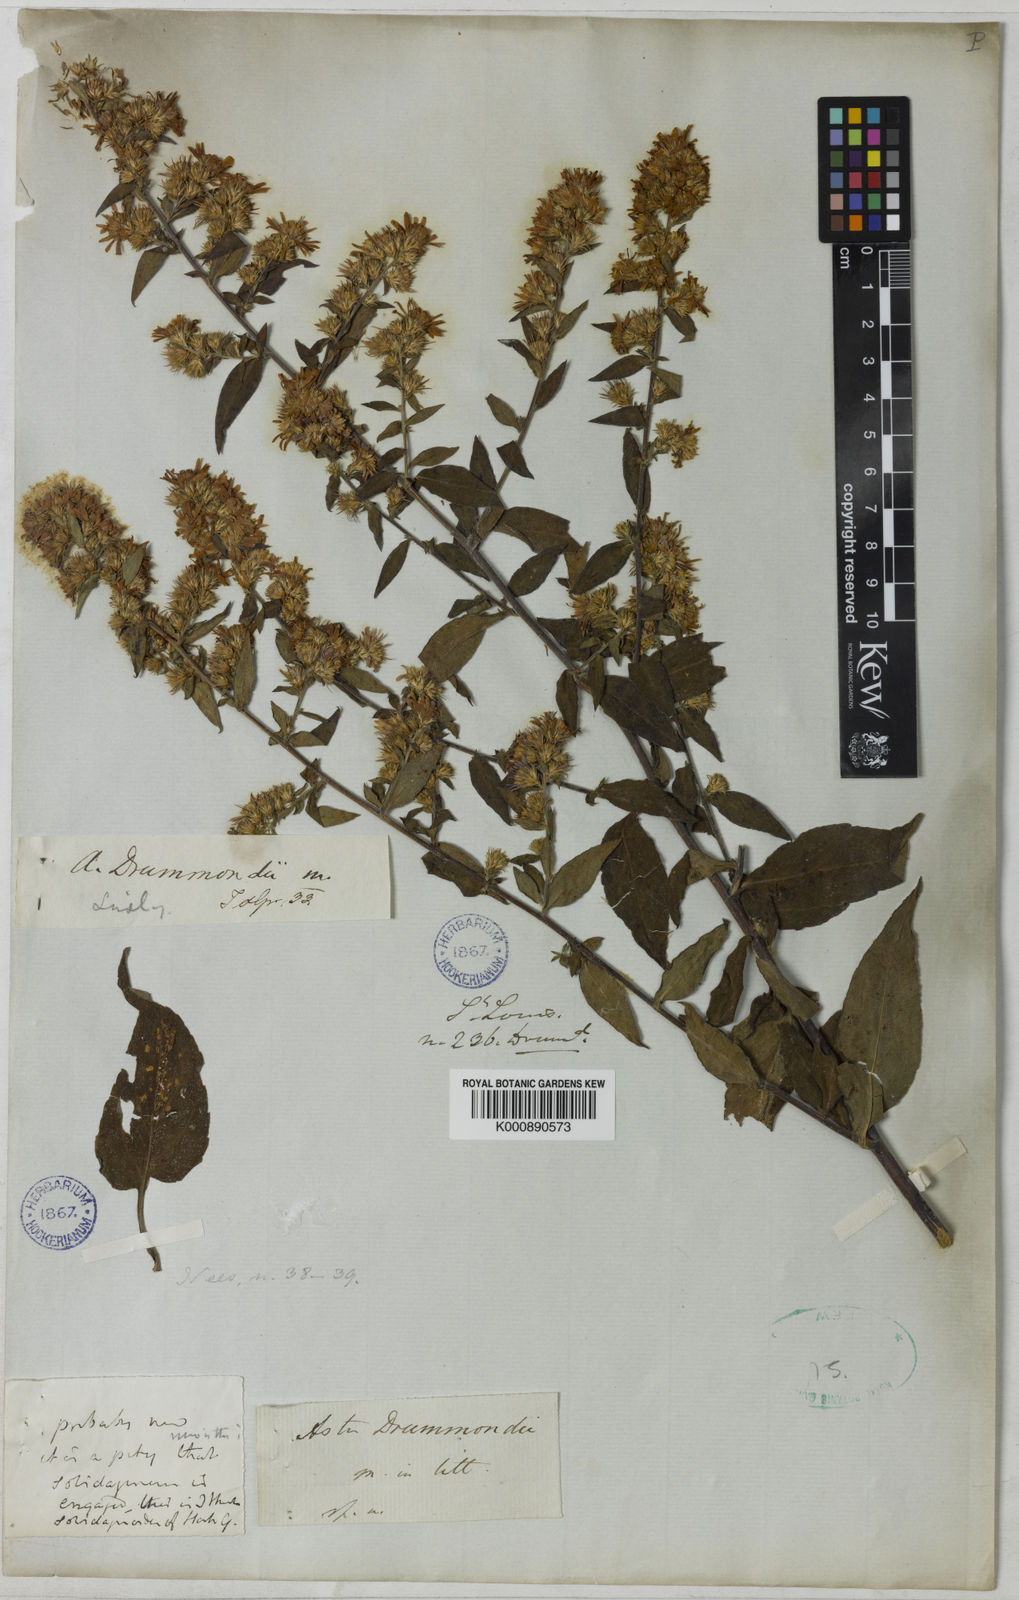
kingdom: Plantae
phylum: Tracheophyta
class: Magnoliopsida
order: Asterales
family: Asteraceae
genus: Symphyotrichum
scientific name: Symphyotrichum drummondii
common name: Drummond's aster
